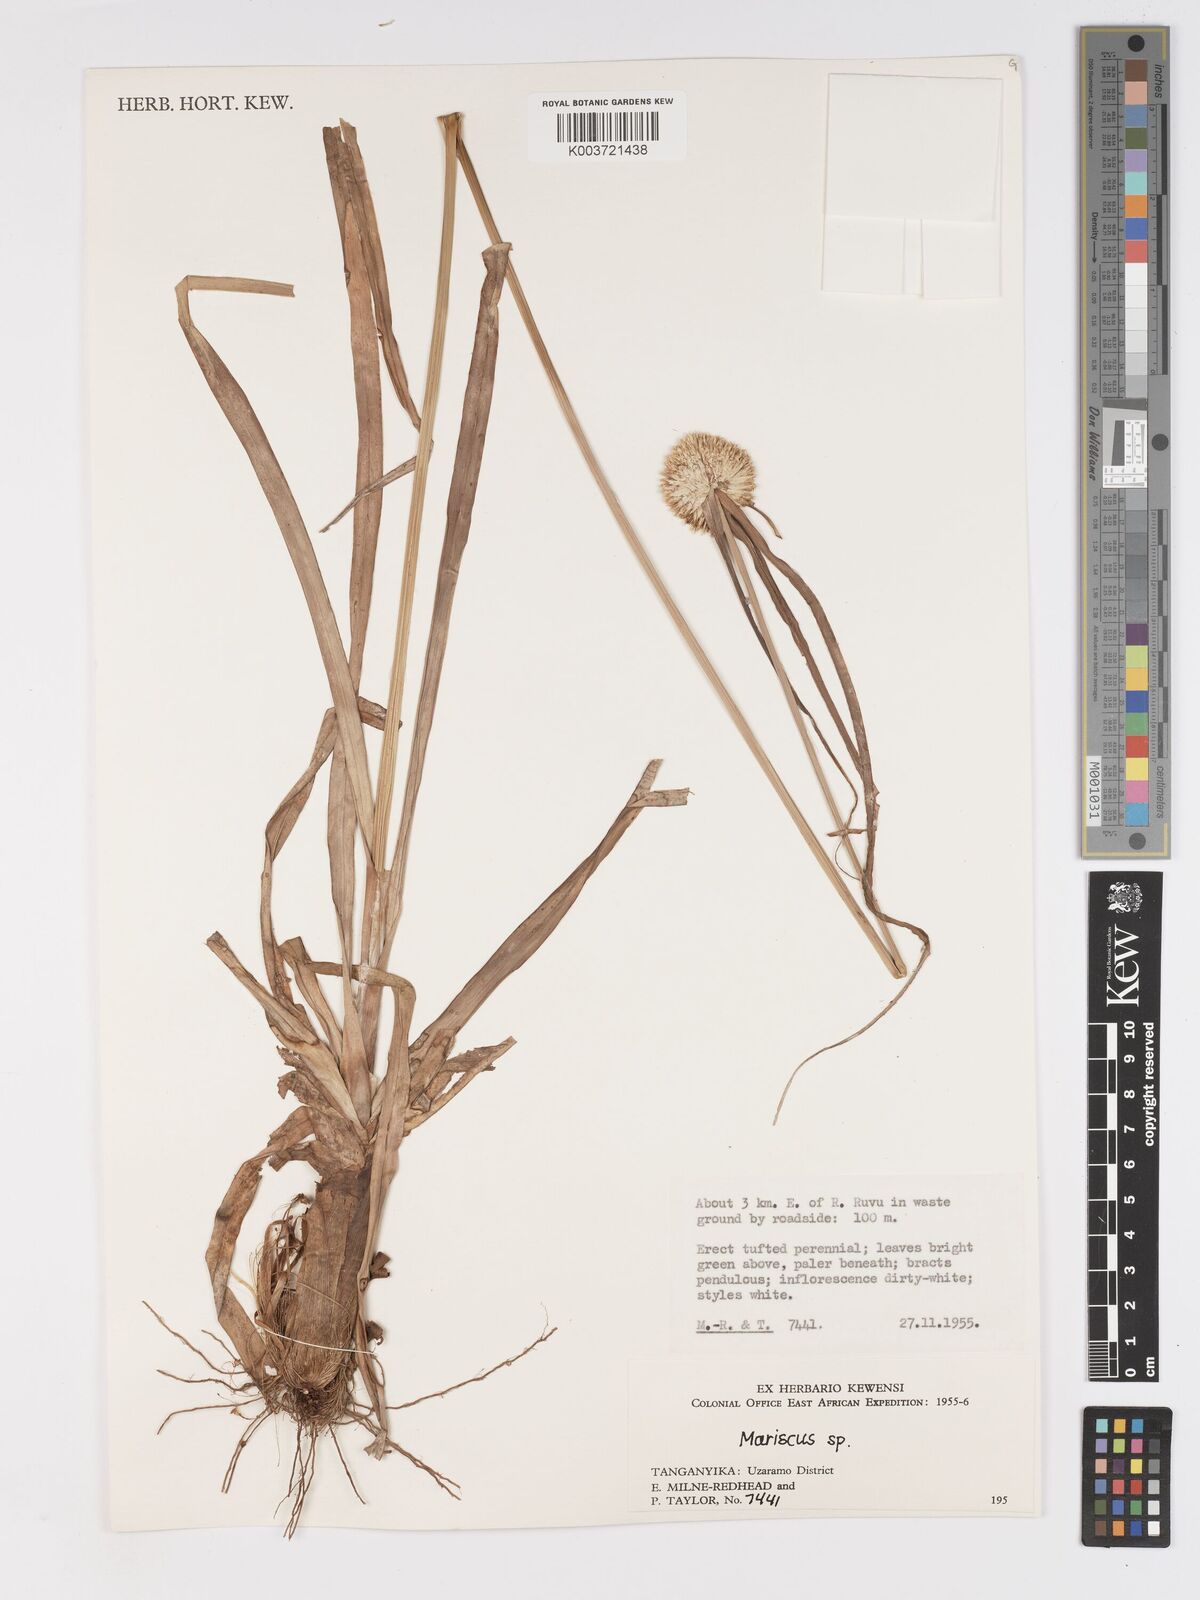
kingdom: Plantae
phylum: Tracheophyta
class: Liliopsida
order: Poales
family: Cyperaceae
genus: Cyperus
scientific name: Cyperus mollipes
